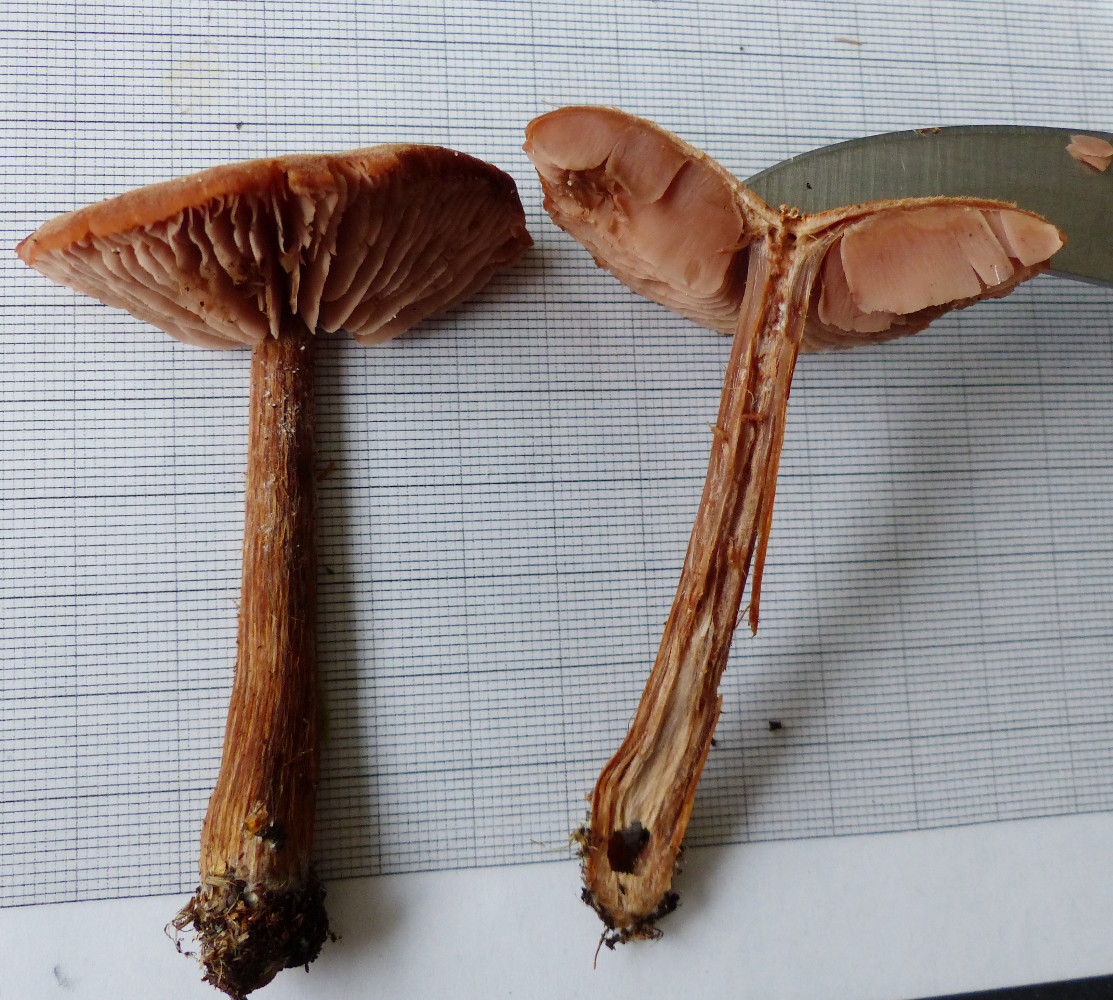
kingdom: Fungi
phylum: Basidiomycota
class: Agaricomycetes
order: Agaricales
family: Hydnangiaceae
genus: Laccaria
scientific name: Laccaria bicolor
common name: tvefarvet ametysthat
